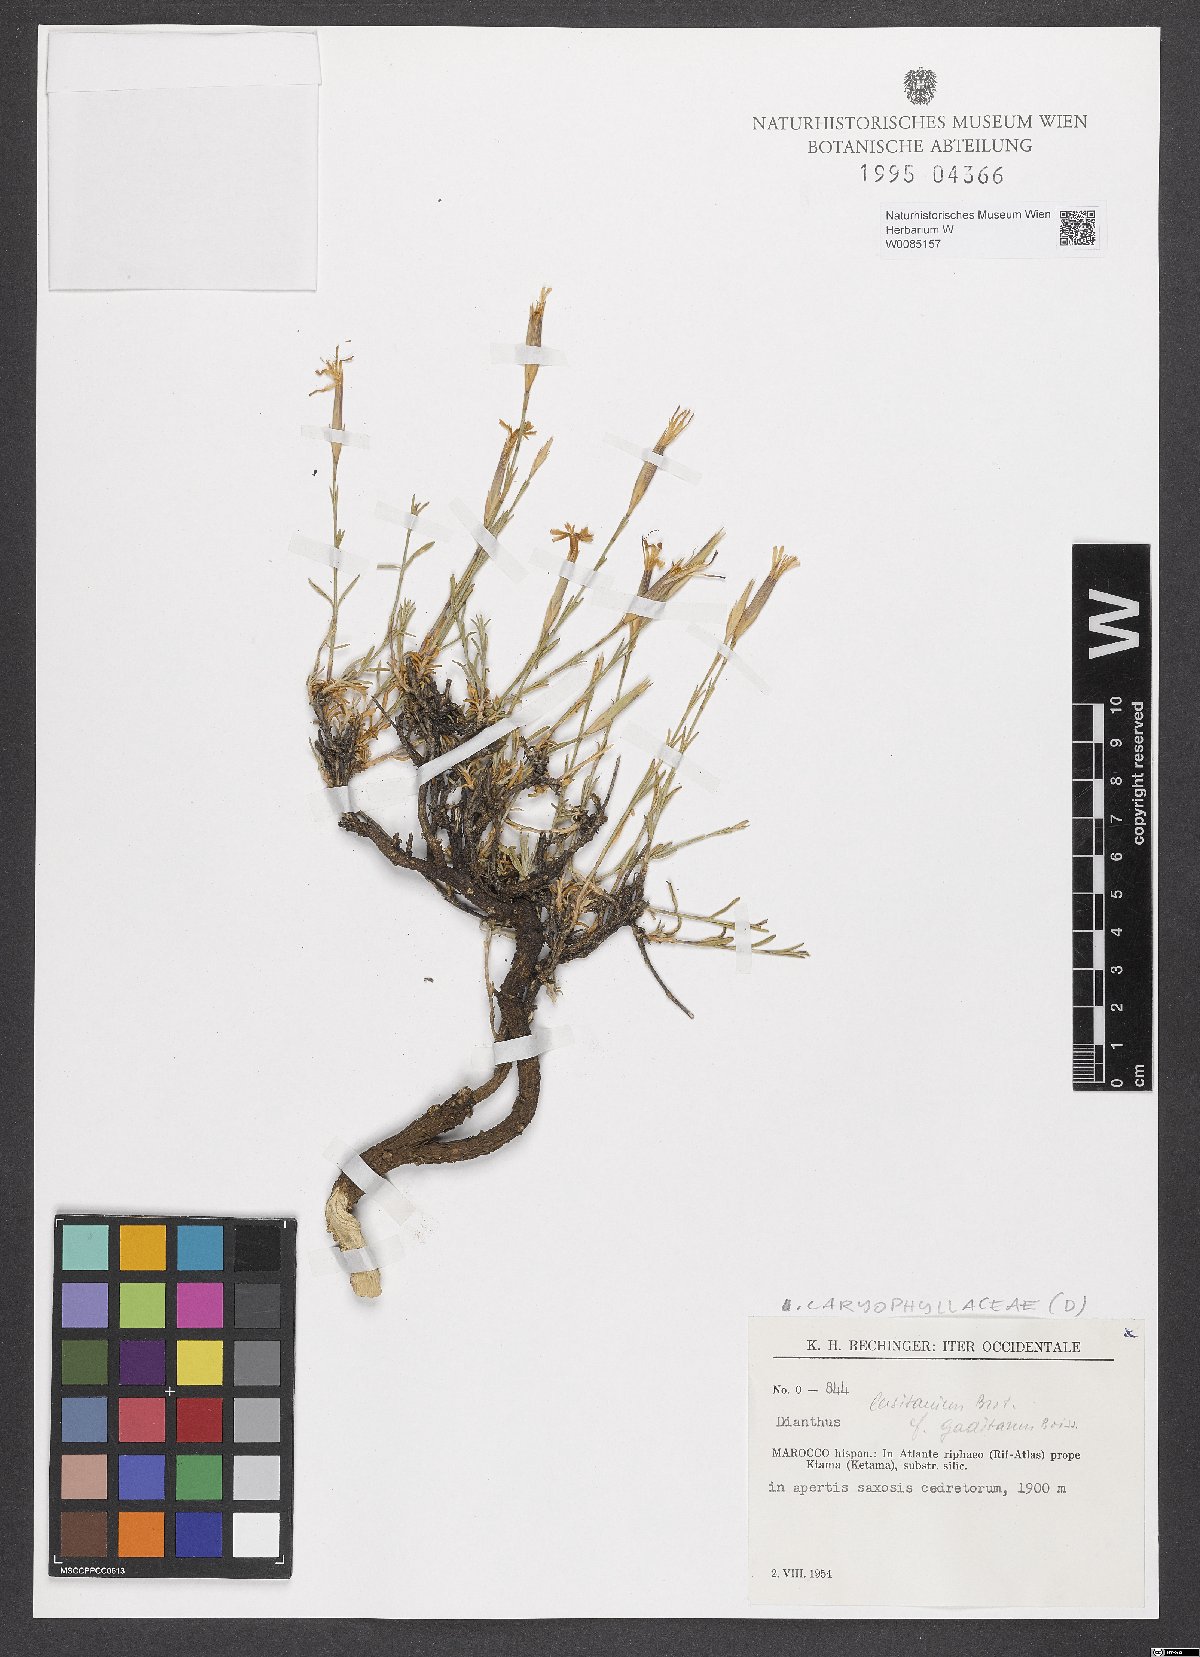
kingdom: Plantae
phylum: Tracheophyta
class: Magnoliopsida
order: Caryophyllales
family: Caryophyllaceae
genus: Dianthus
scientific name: Dianthus lusitanus
